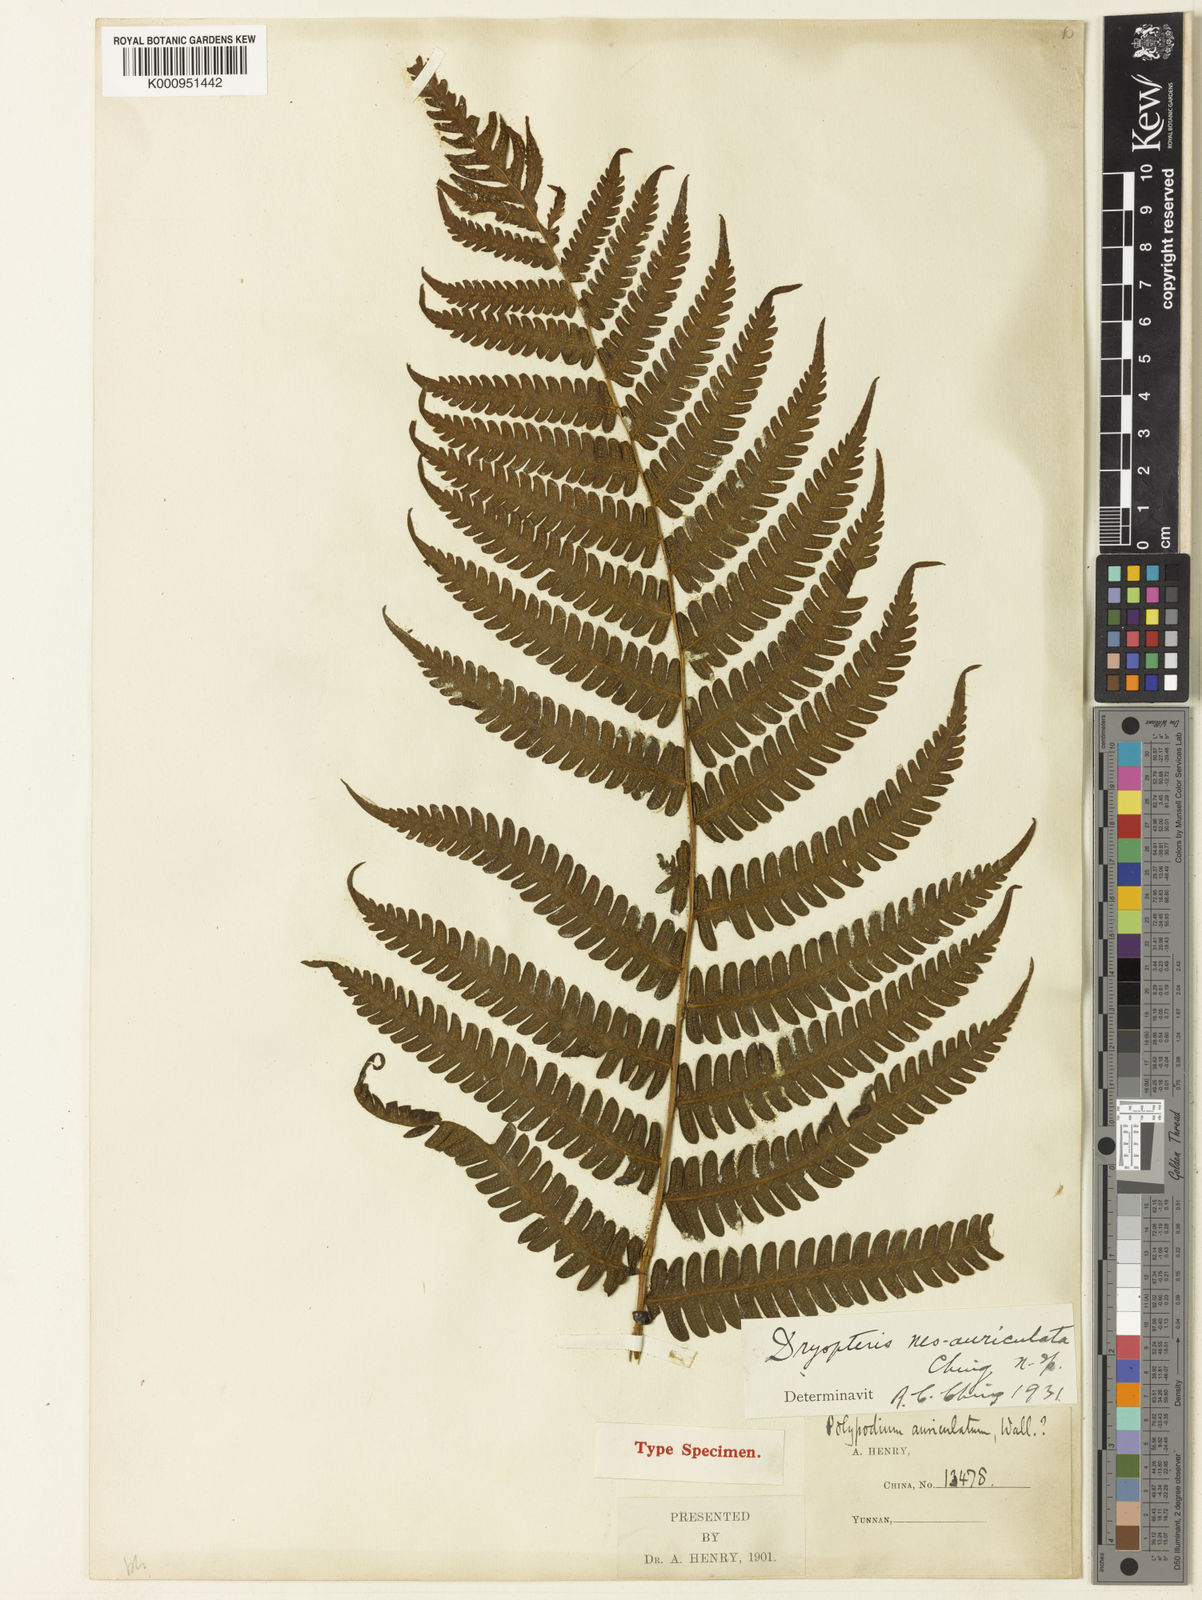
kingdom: Plantae
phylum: Tracheophyta
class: Polypodiopsida
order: Polypodiales
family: Thelypteridaceae
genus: Cyclogramma
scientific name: Cyclogramma neoauriculata
